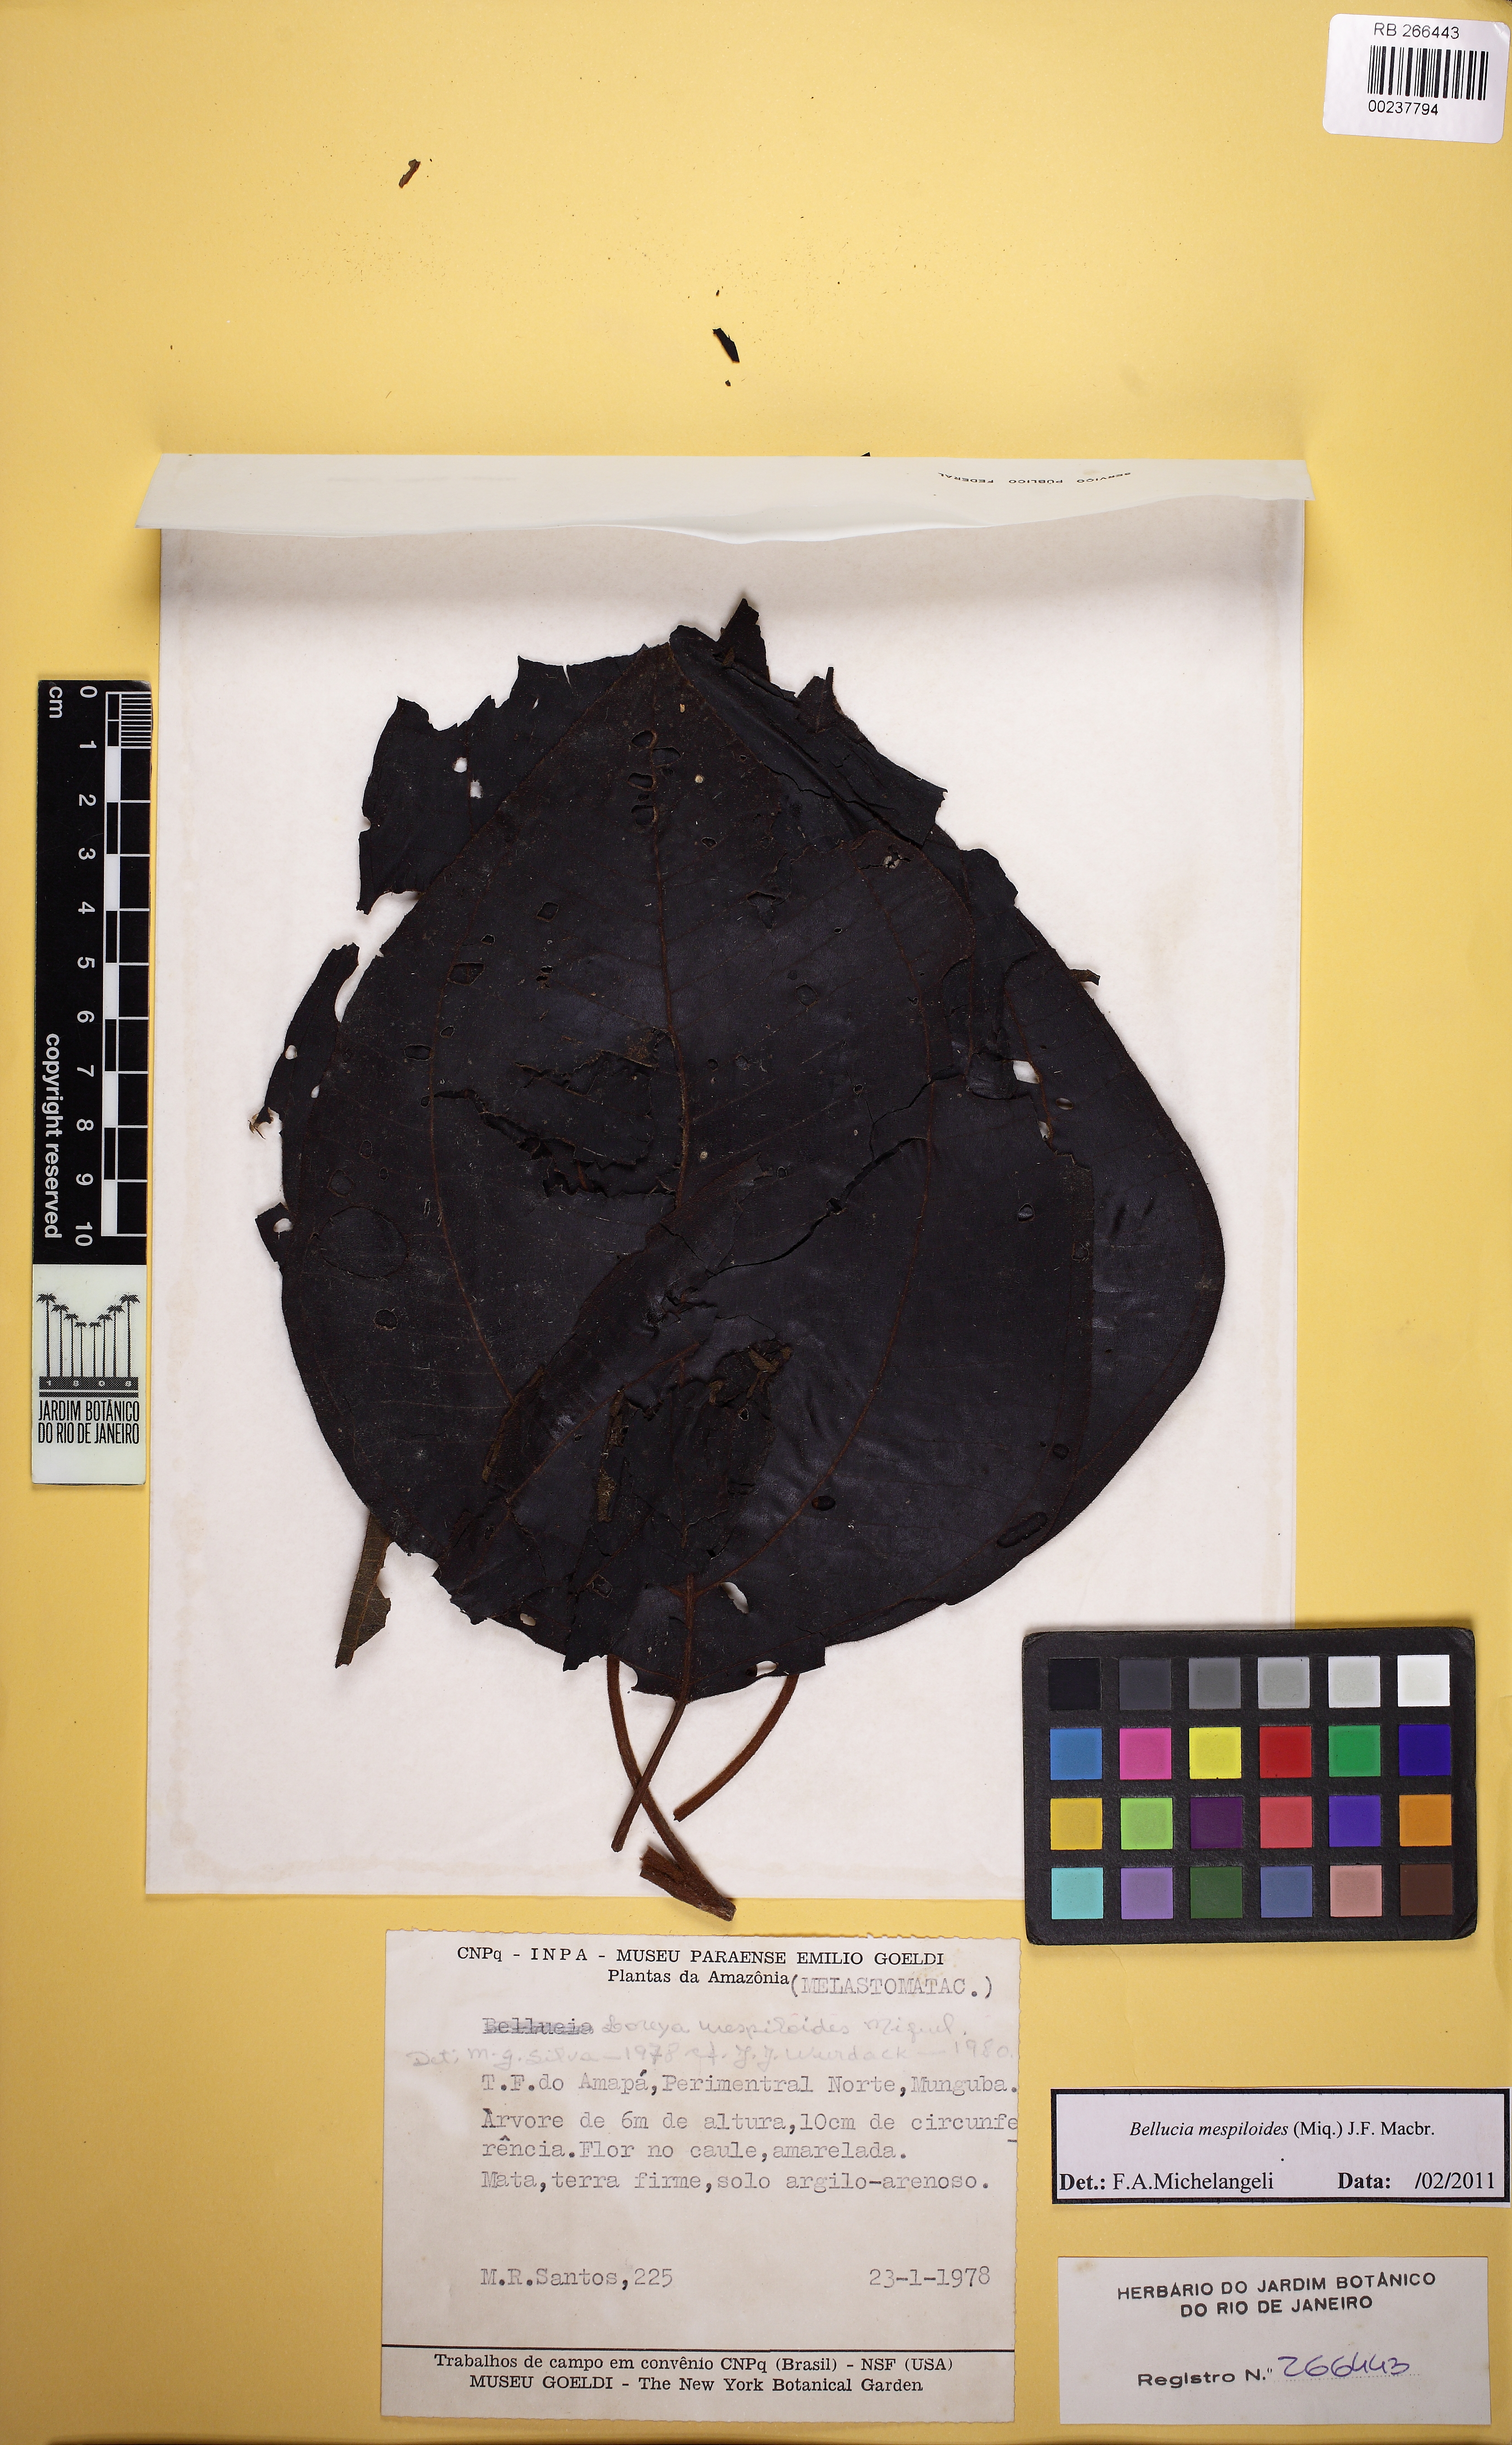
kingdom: Plantae
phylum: Tracheophyta
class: Magnoliopsida
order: Myrtales
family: Melastomataceae
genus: Bellucia
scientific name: Bellucia mespiloides
